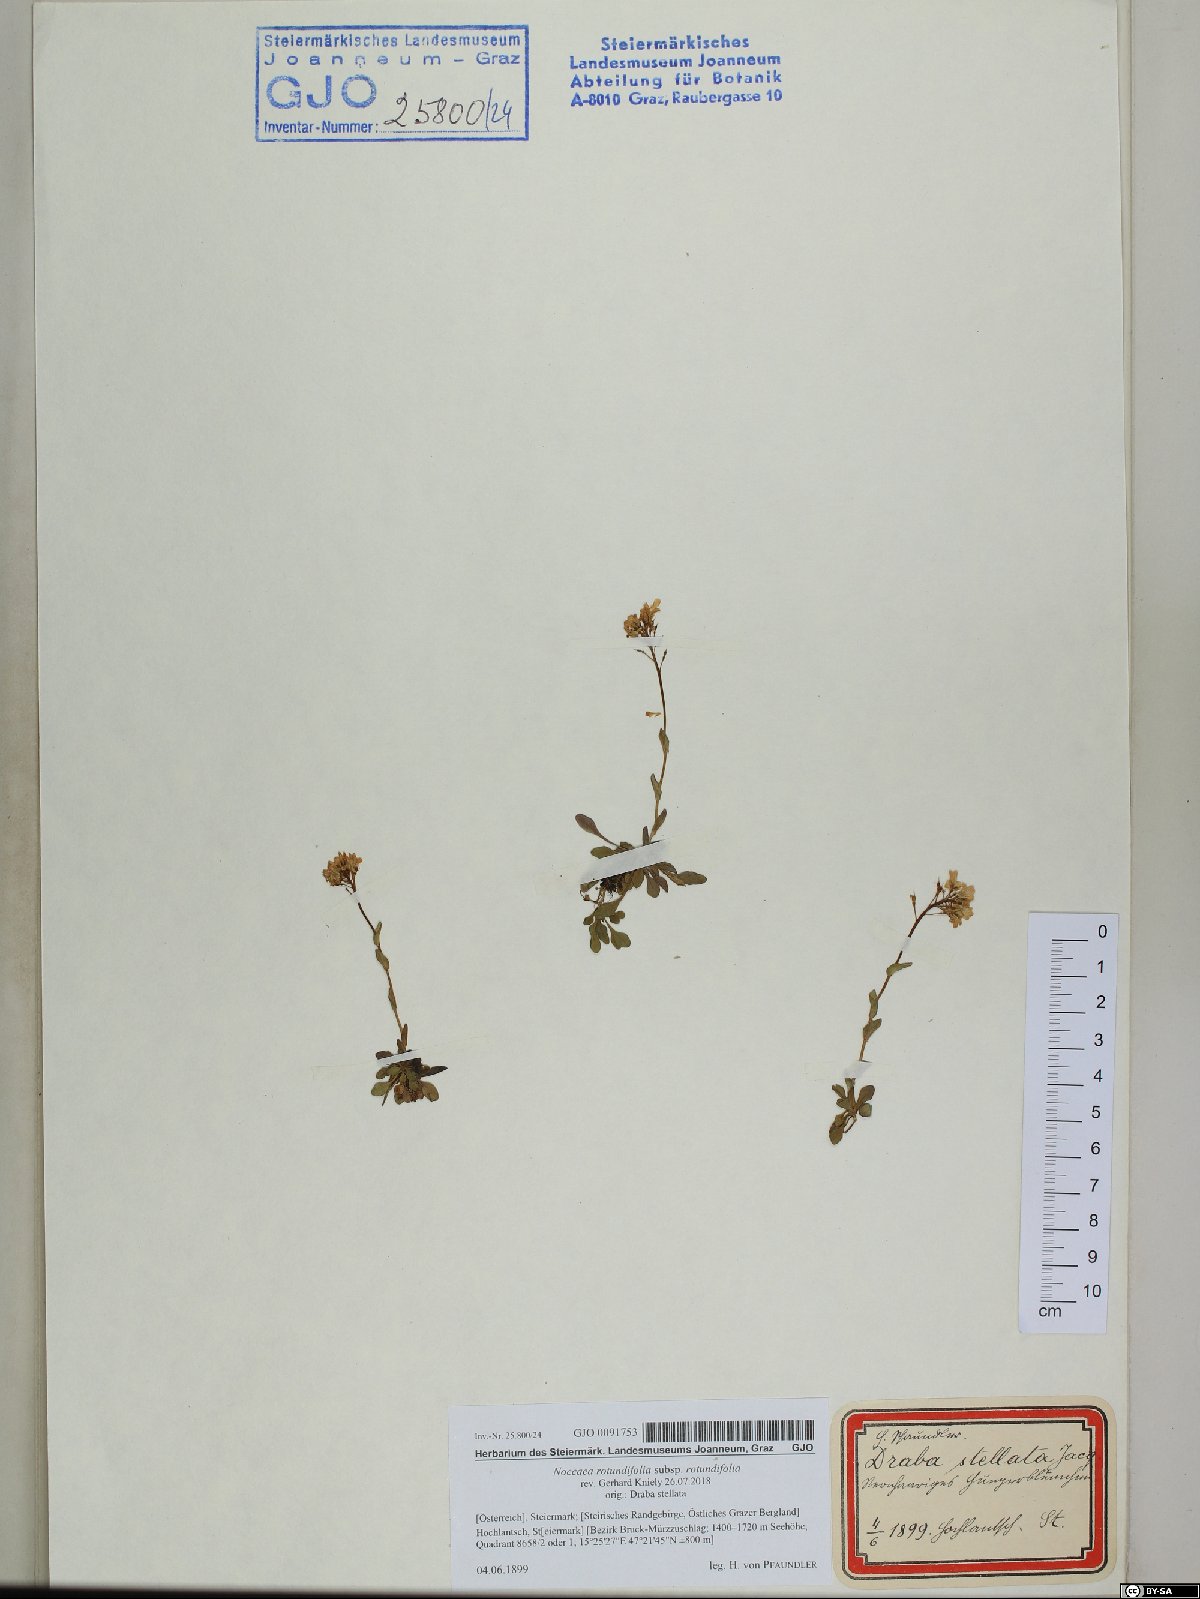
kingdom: Plantae
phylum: Tracheophyta
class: Magnoliopsida
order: Brassicales
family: Brassicaceae
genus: Noccaea
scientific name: Noccaea rotundifolia
